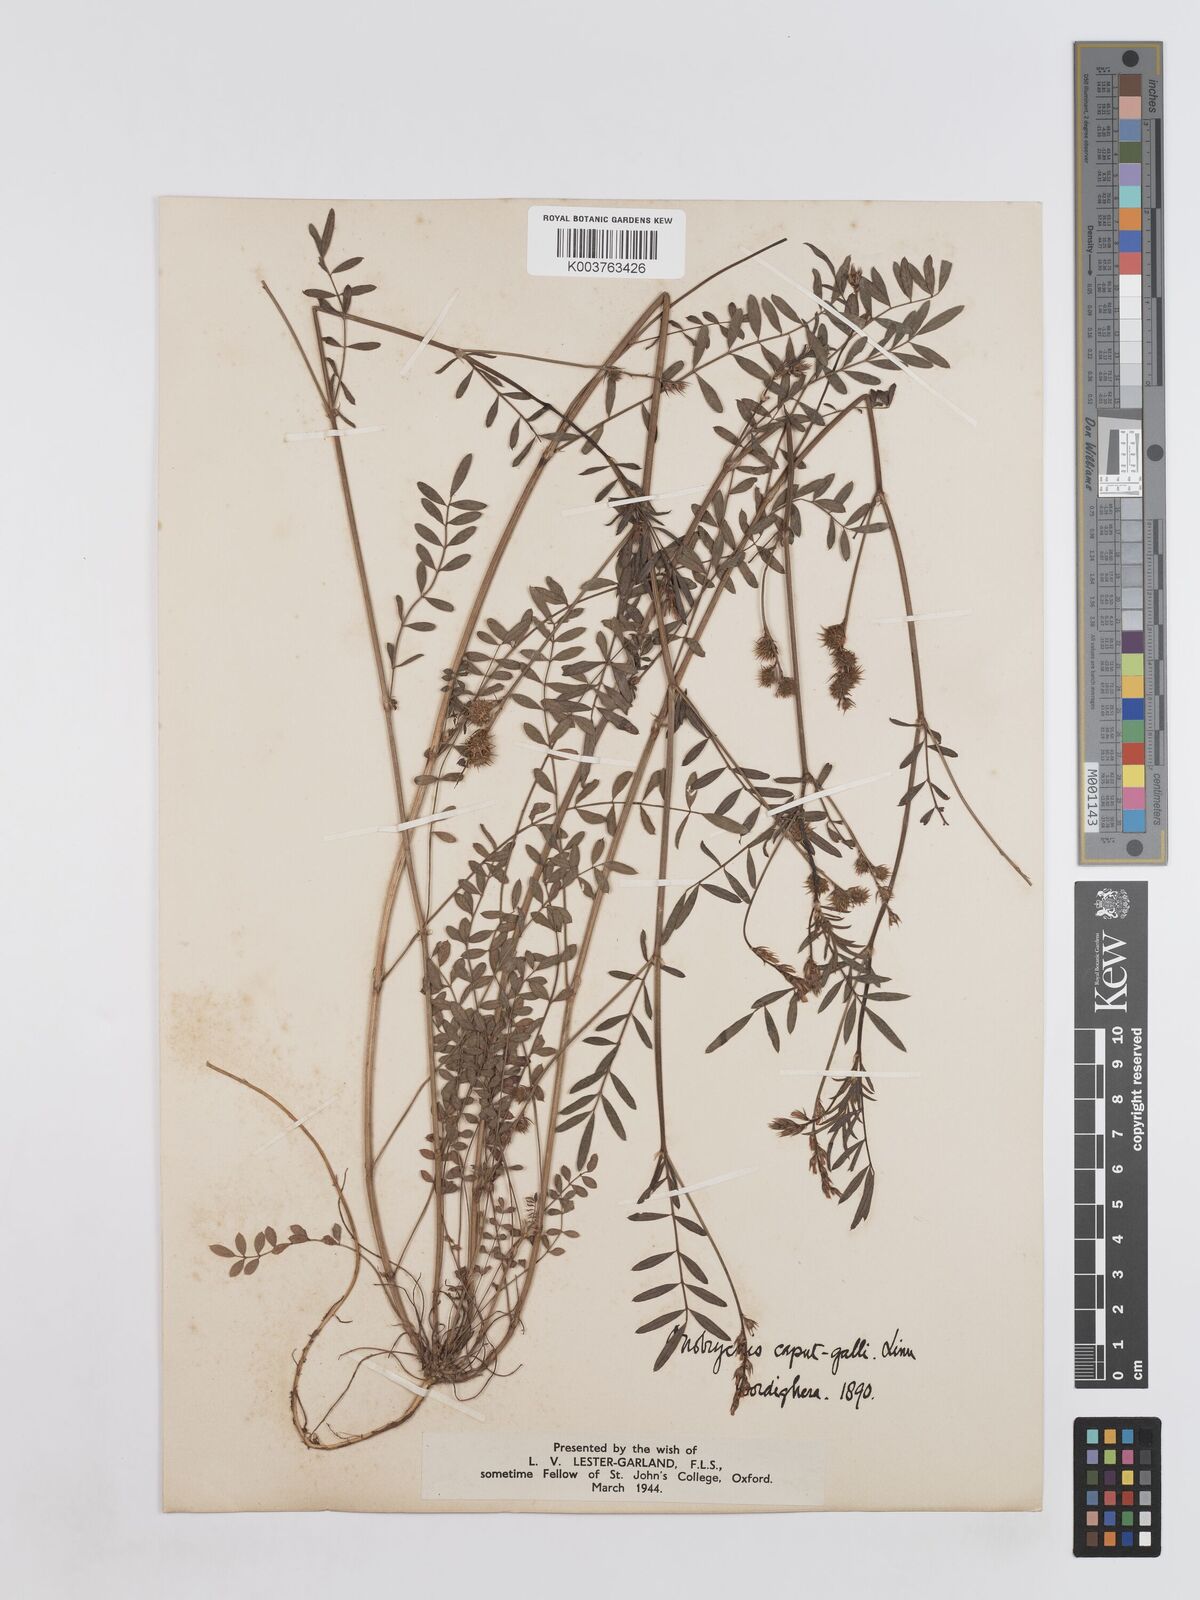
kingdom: Plantae
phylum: Tracheophyta
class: Magnoliopsida
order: Fabales
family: Fabaceae
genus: Onobrychis
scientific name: Onobrychis caput-galli
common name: Cockscomb sainfoin
